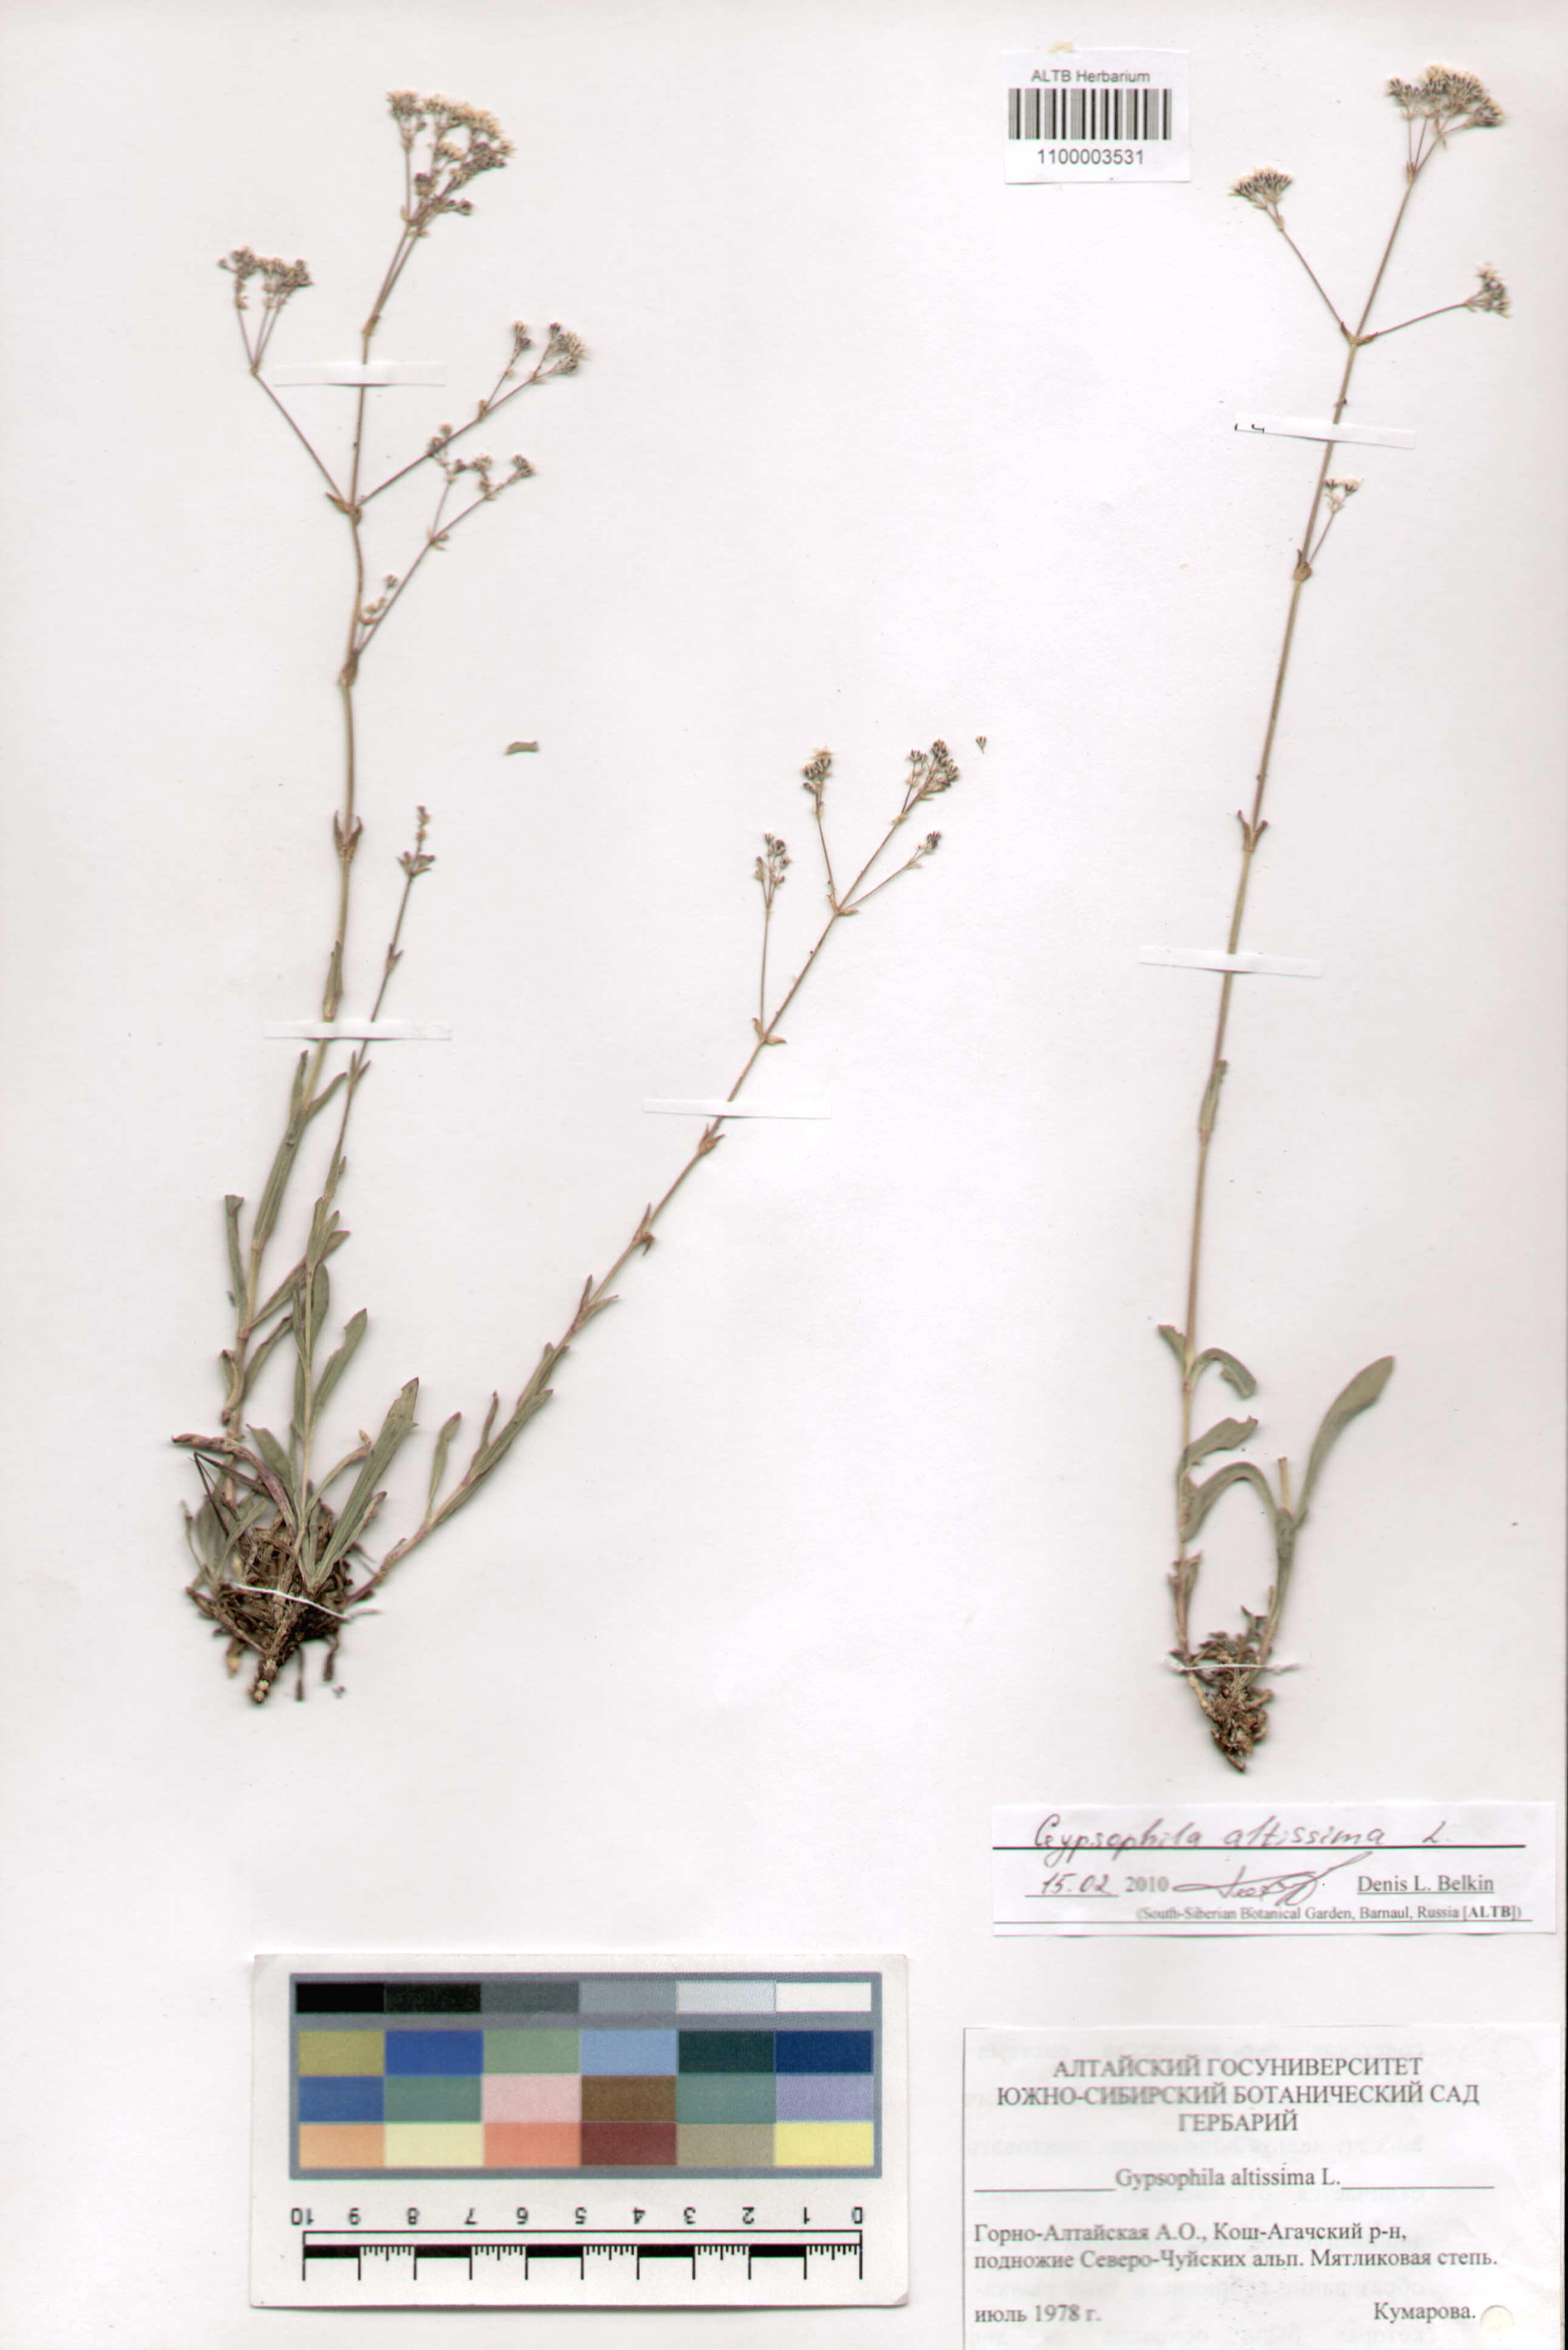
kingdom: Plantae
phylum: Tracheophyta
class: Magnoliopsida
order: Caryophyllales
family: Caryophyllaceae
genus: Gypsophila
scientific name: Gypsophila altissima
